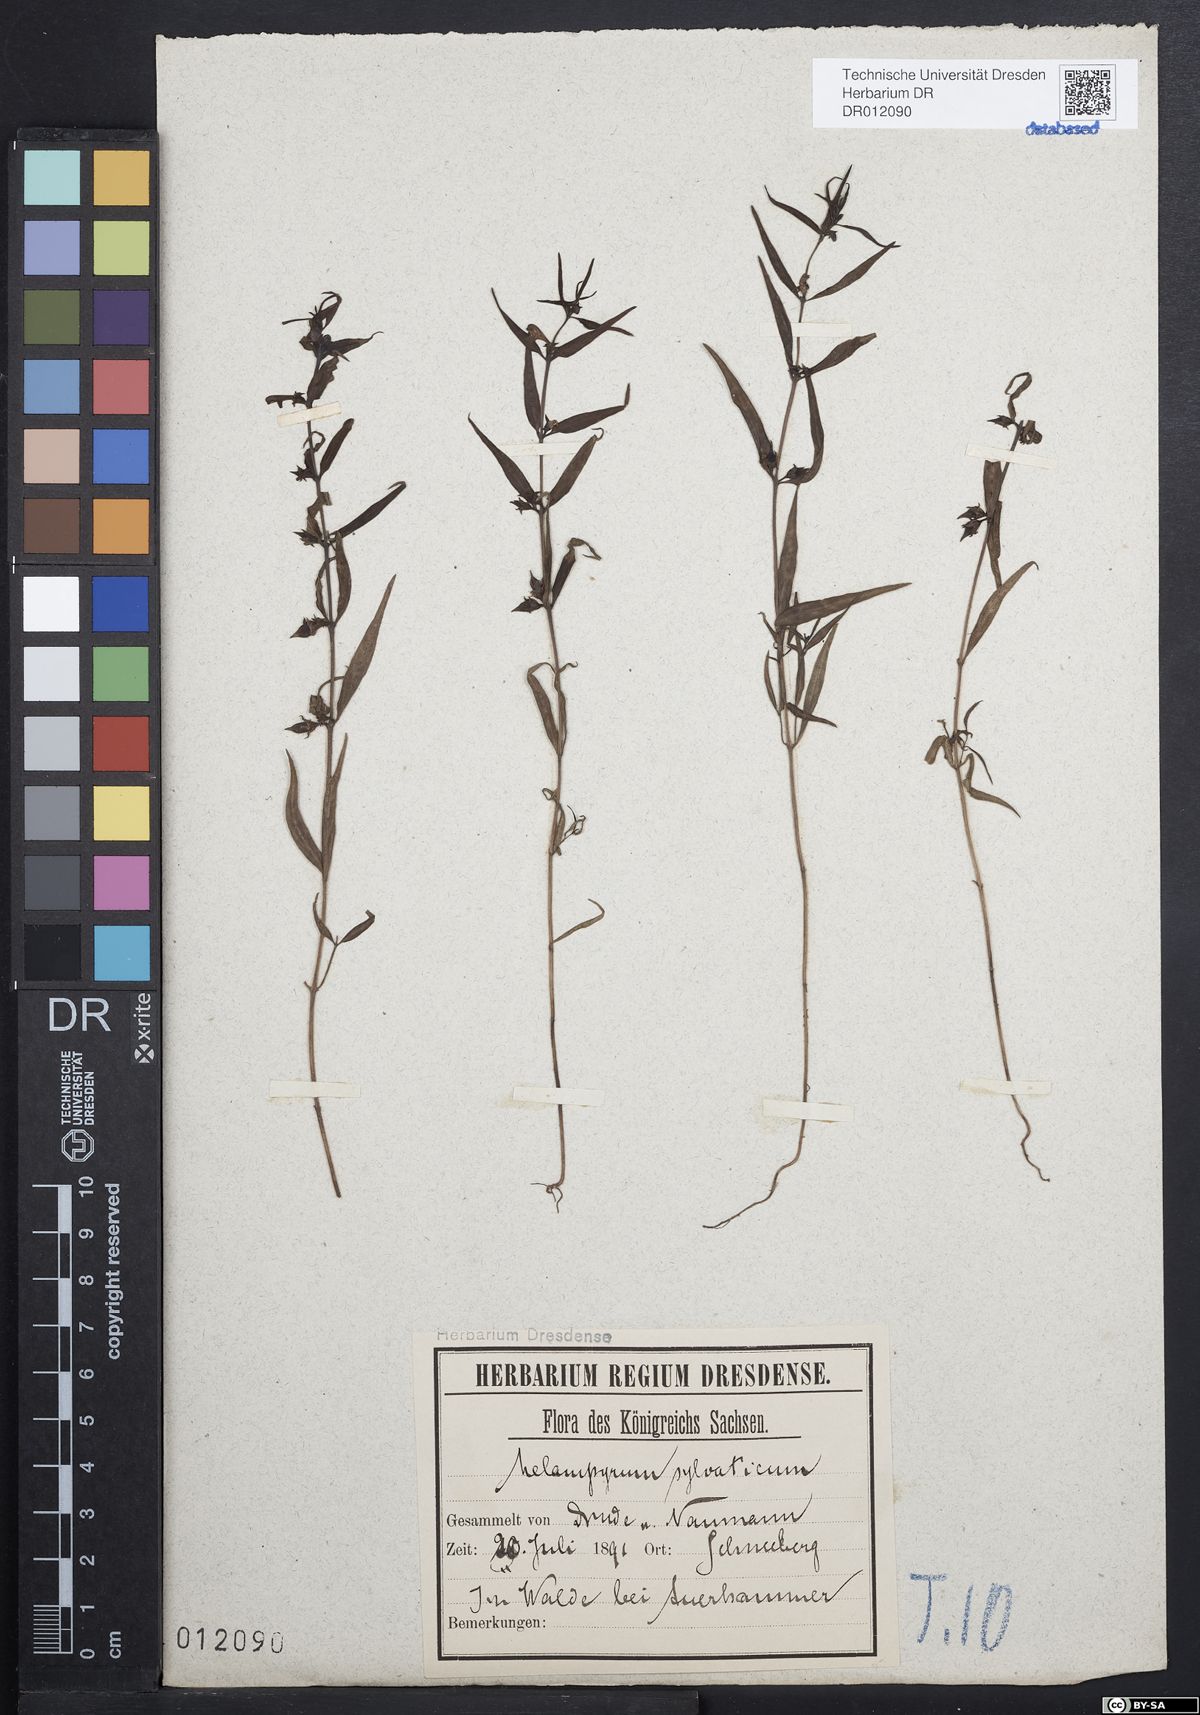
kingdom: Plantae
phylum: Tracheophyta
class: Magnoliopsida
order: Lamiales
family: Orobanchaceae
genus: Melampyrum
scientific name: Melampyrum sylvaticum
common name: Small cow-wheat
